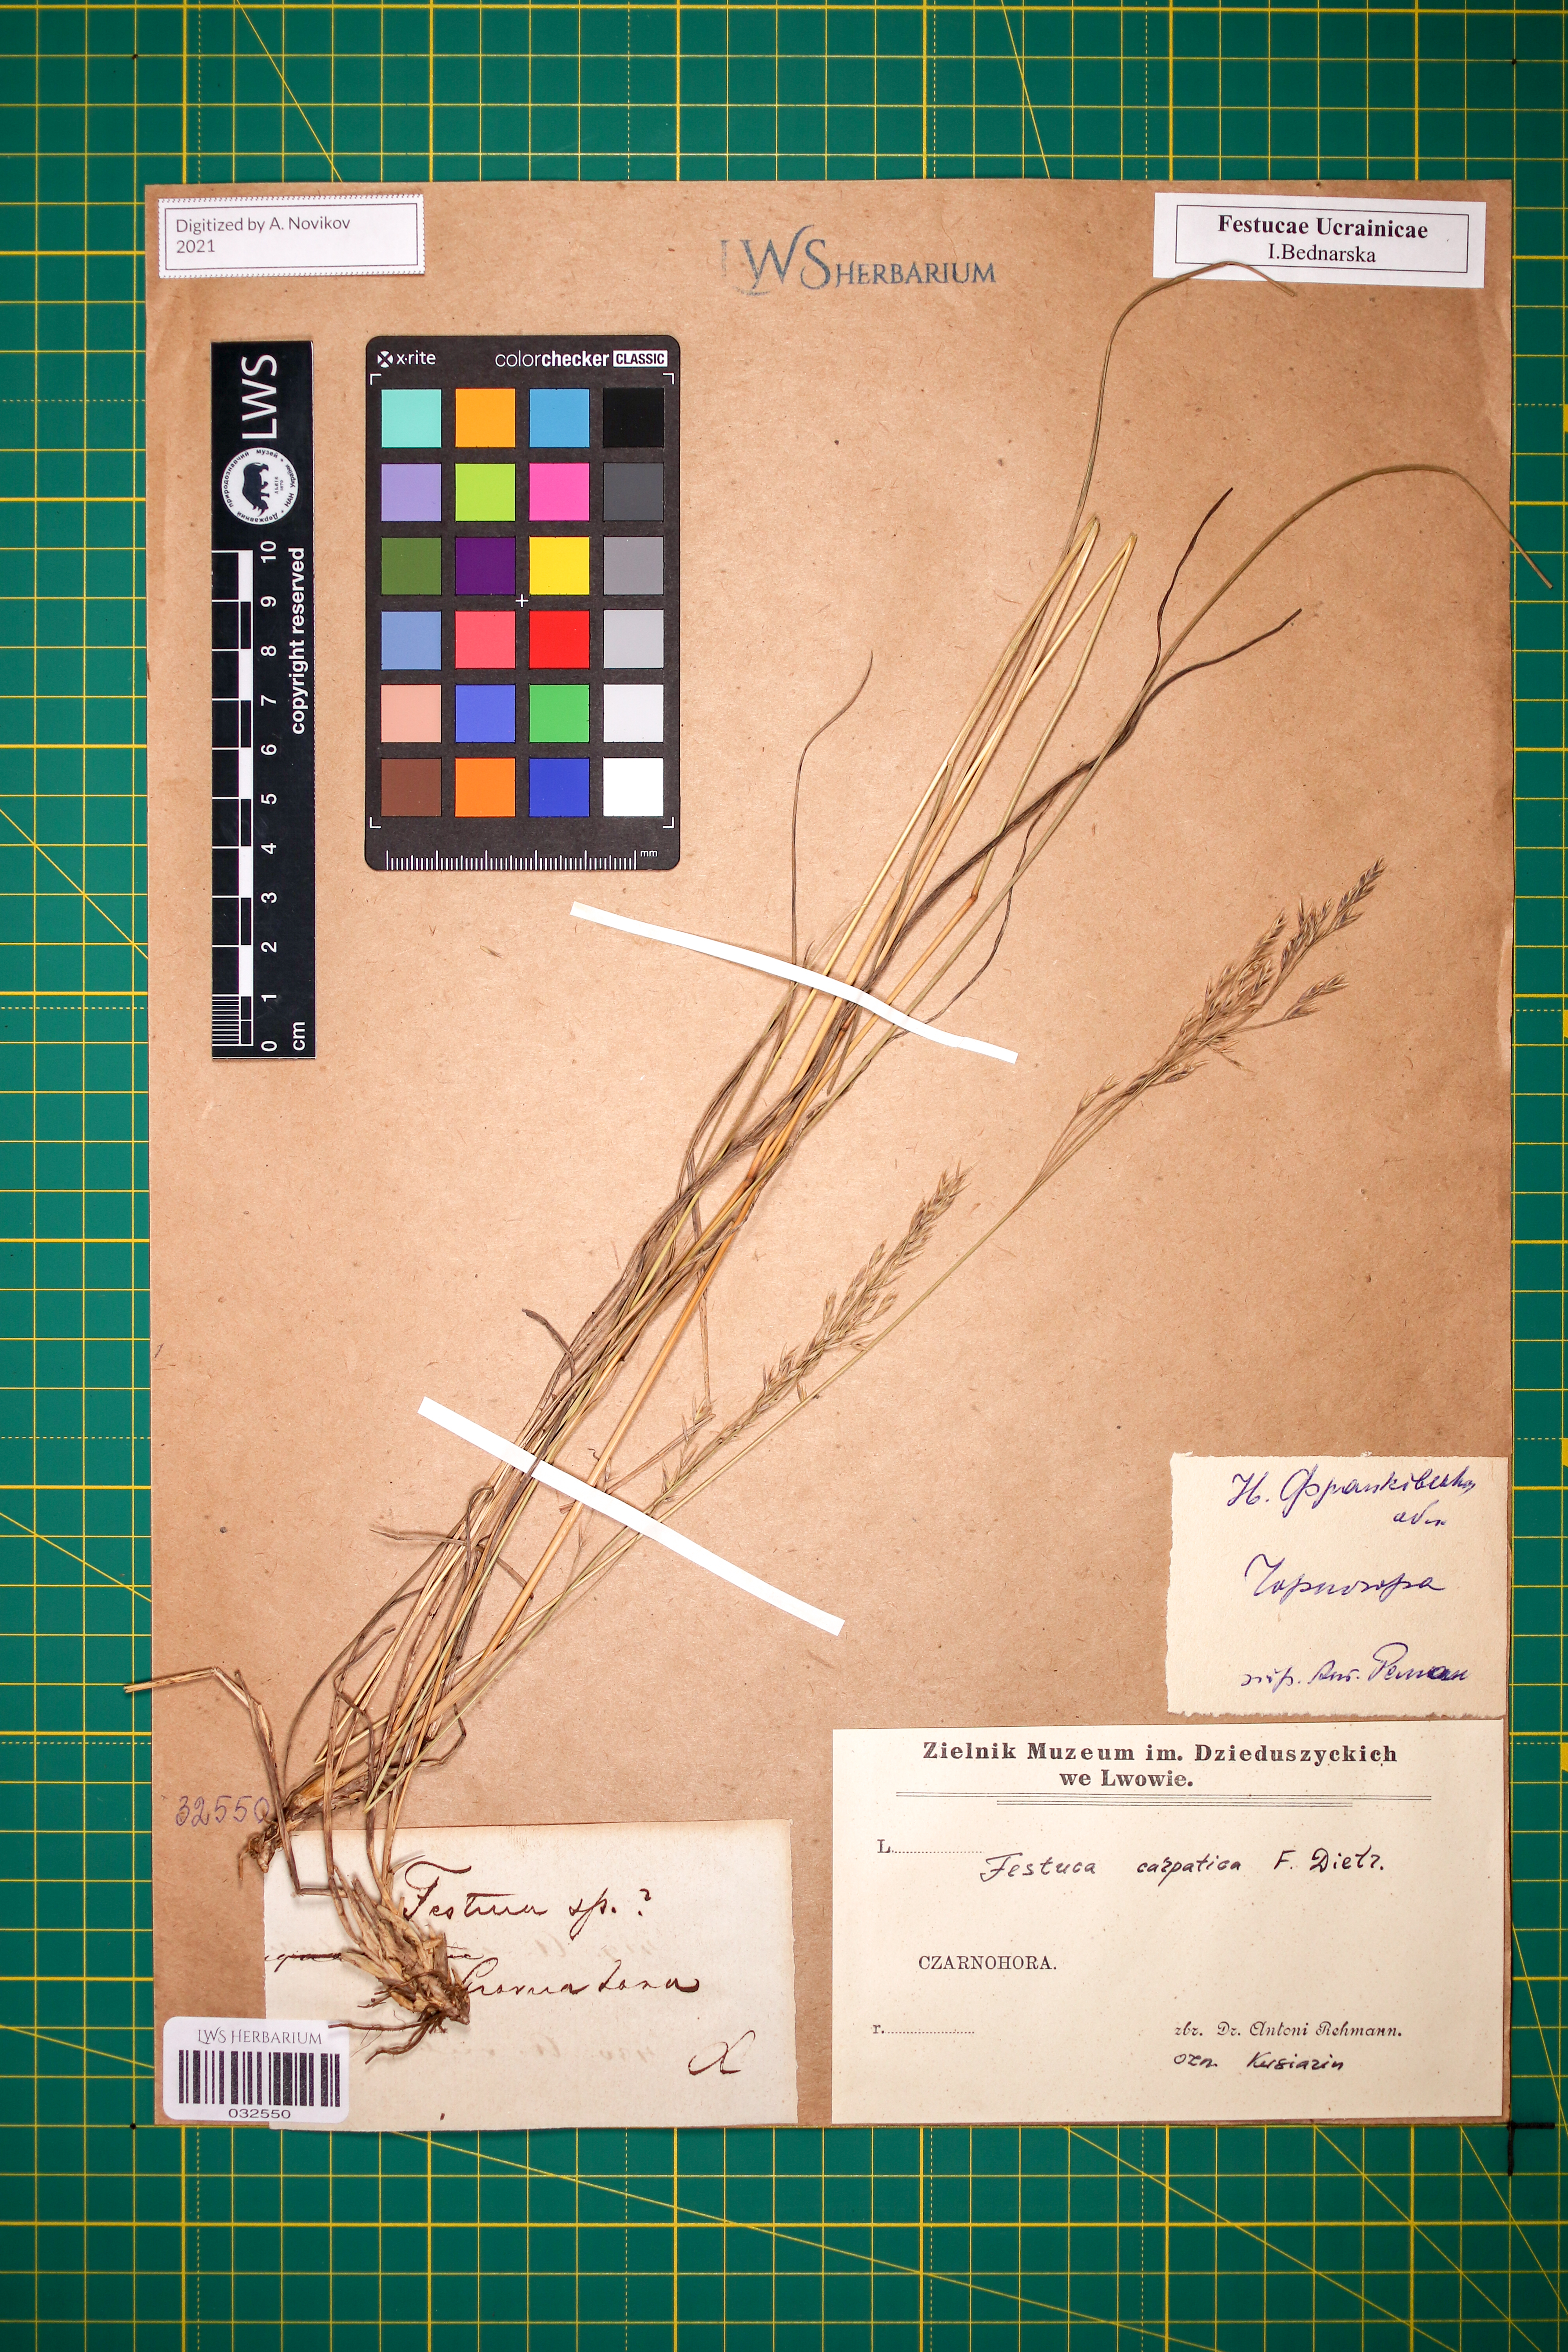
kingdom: Plantae
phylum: Tracheophyta
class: Liliopsida
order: Poales
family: Poaceae
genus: Festuca
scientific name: Festuca carpatica
